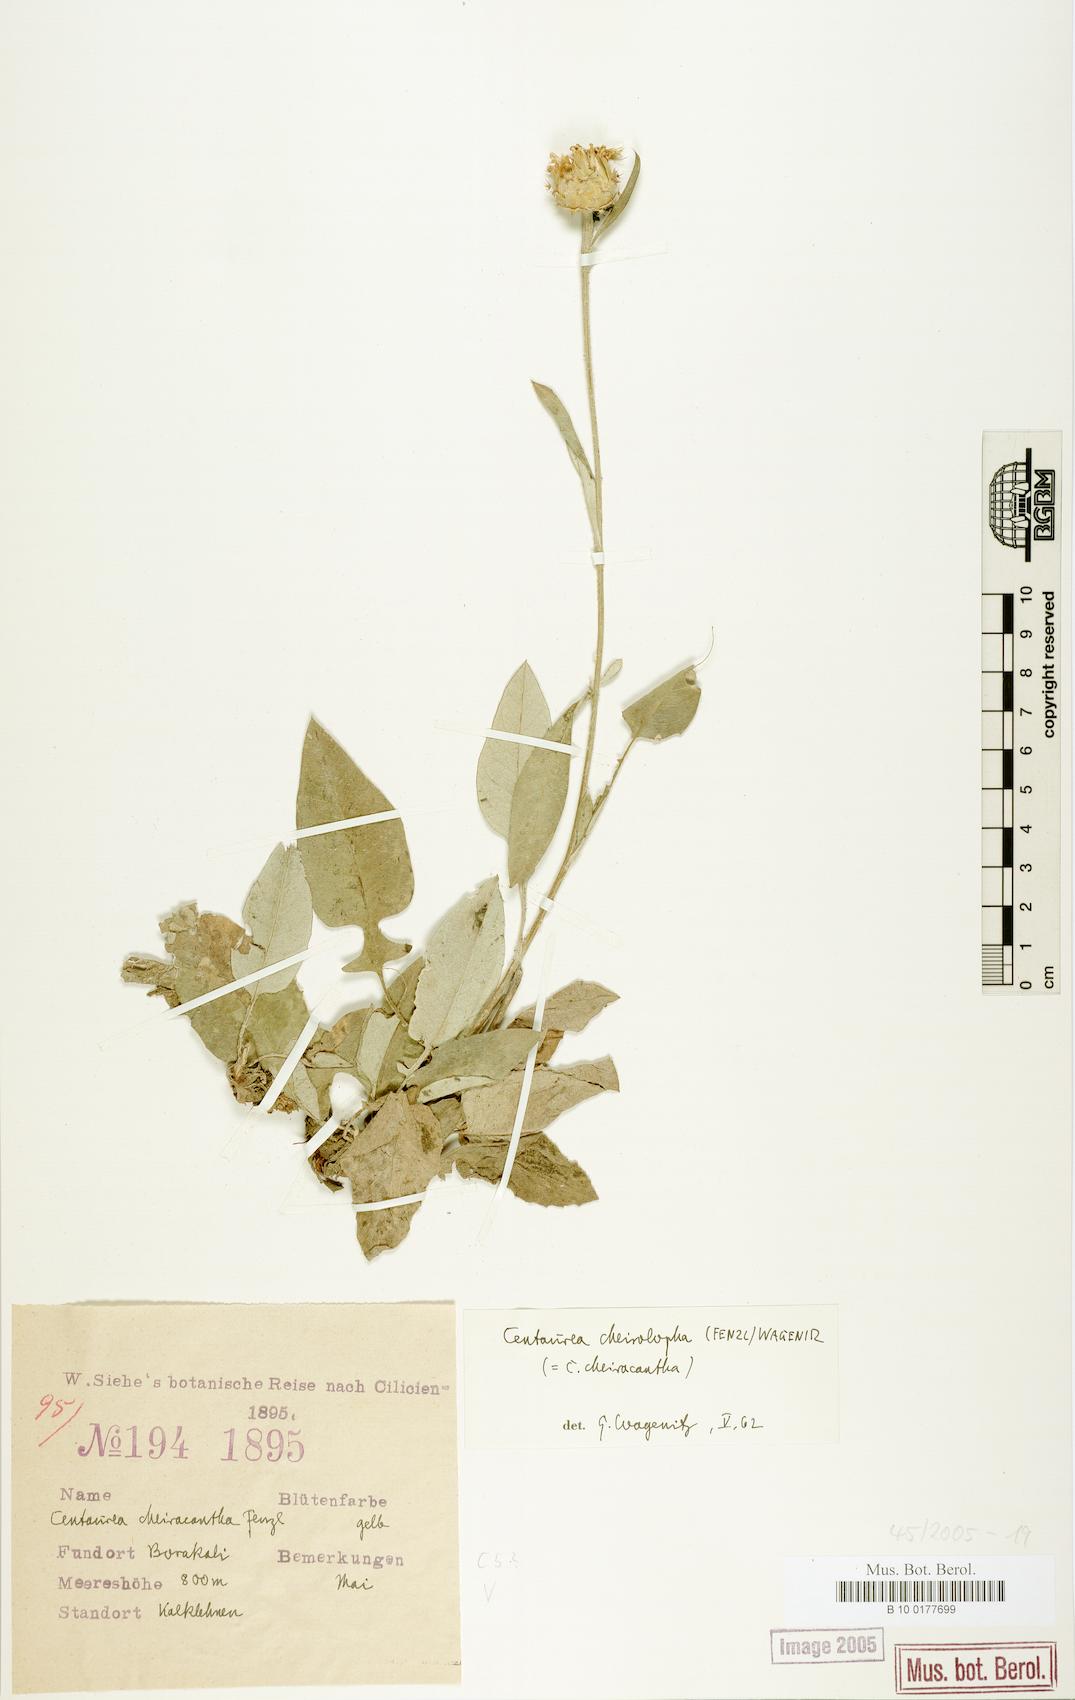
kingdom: Plantae
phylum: Tracheophyta
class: Magnoliopsida
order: Asterales
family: Asteraceae
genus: Centaurea
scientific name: Centaurea cheirolopha
